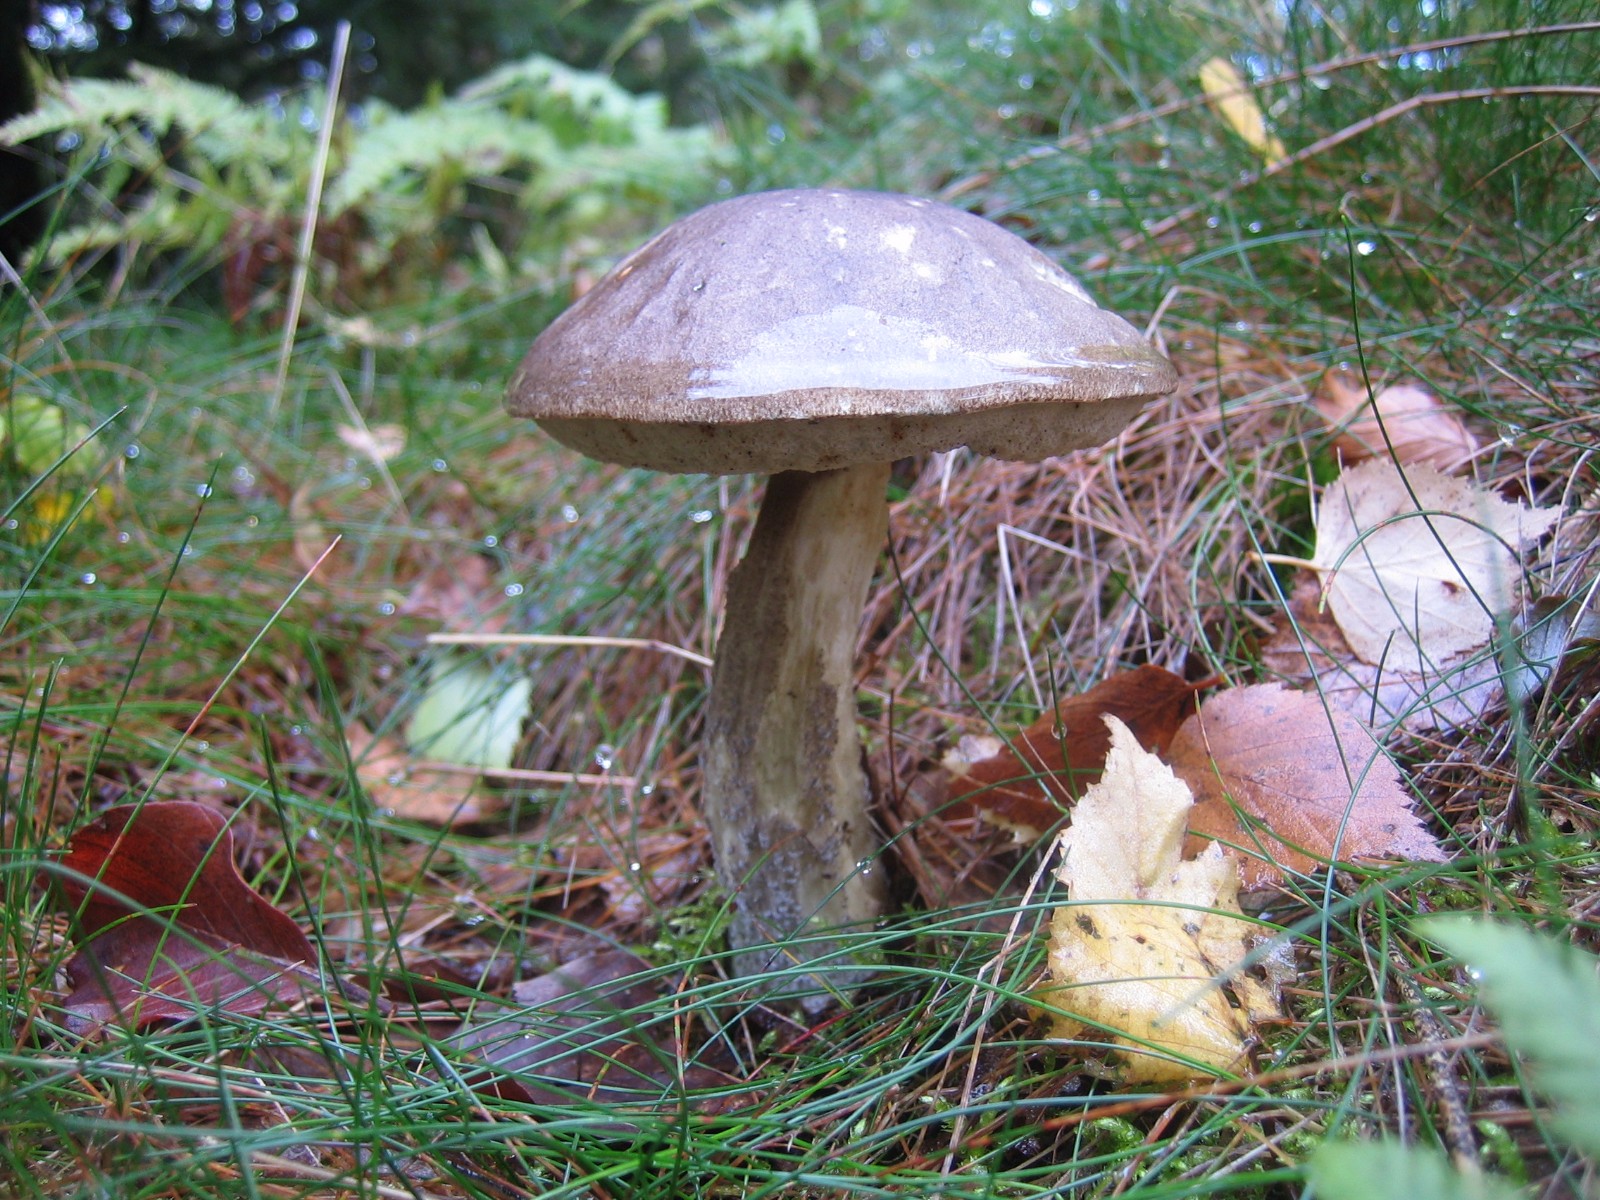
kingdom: Fungi
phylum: Basidiomycota
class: Agaricomycetes
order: Boletales
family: Boletaceae
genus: Leccinum
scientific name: Leccinum scabrum
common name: brun skælrørhat
